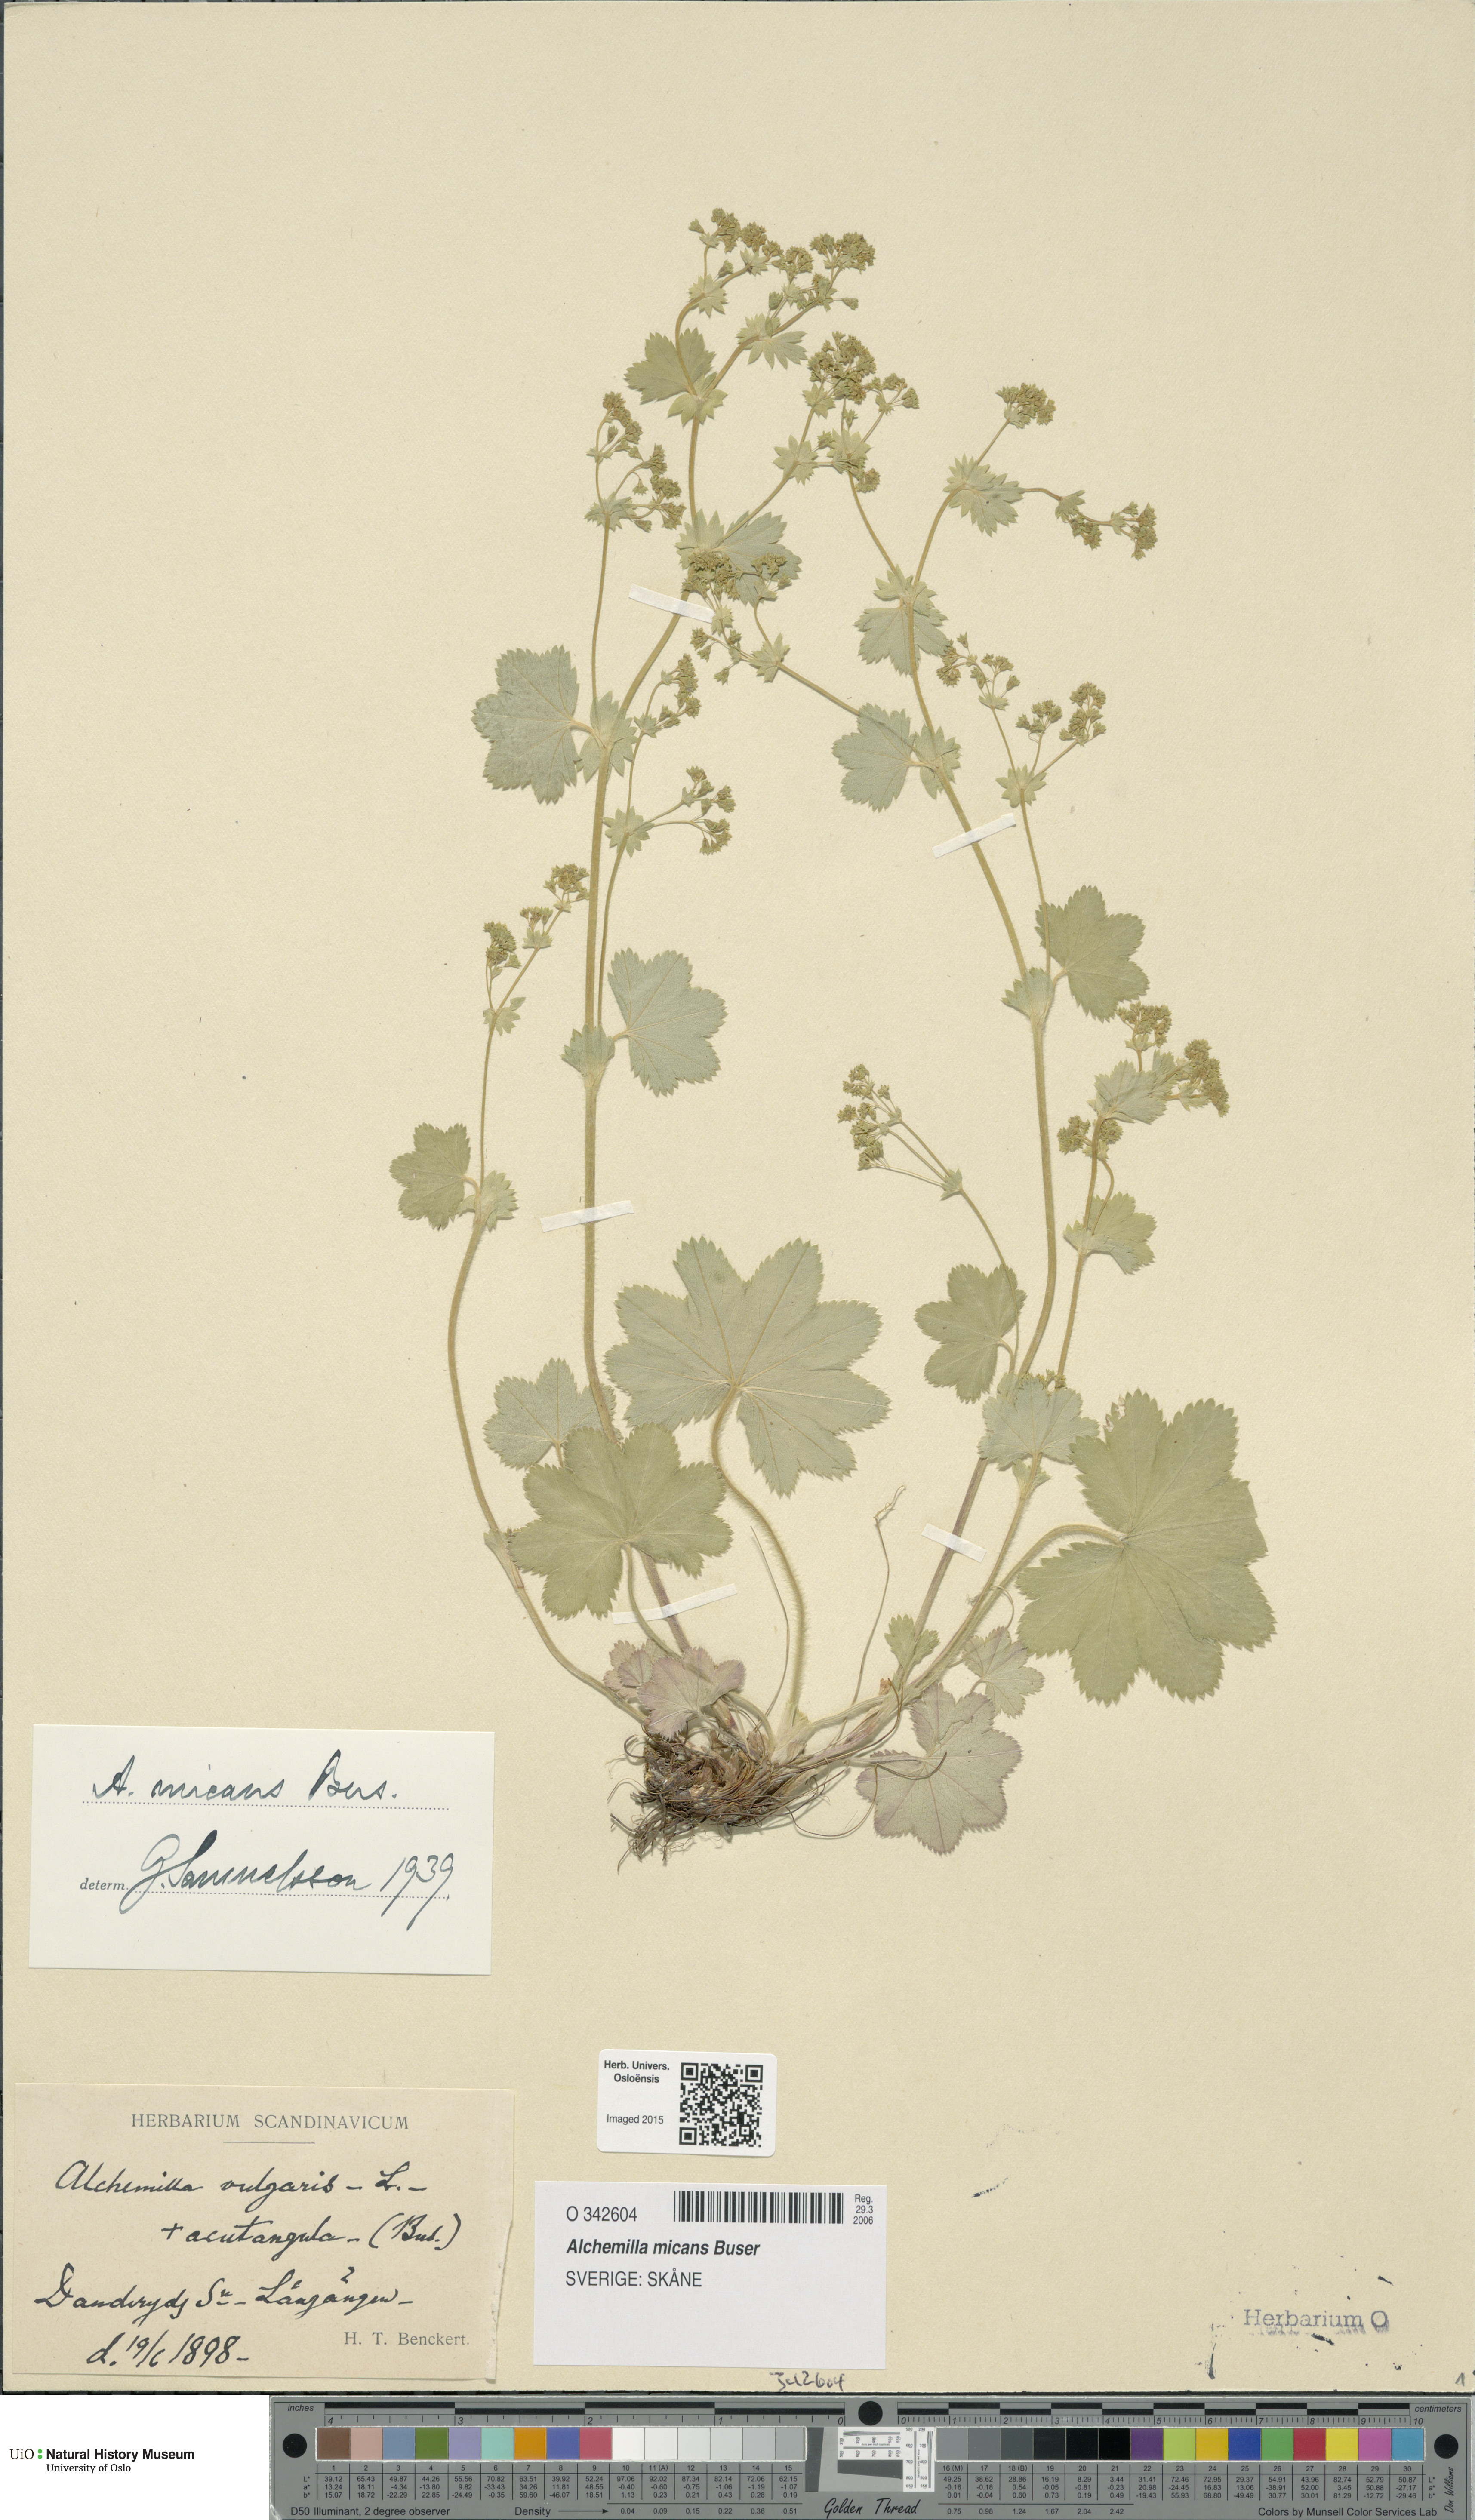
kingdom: Plantae
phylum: Tracheophyta
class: Magnoliopsida
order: Rosales
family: Rosaceae
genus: Alchemilla
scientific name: Alchemilla micans
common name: Gleaming lady's mantle
